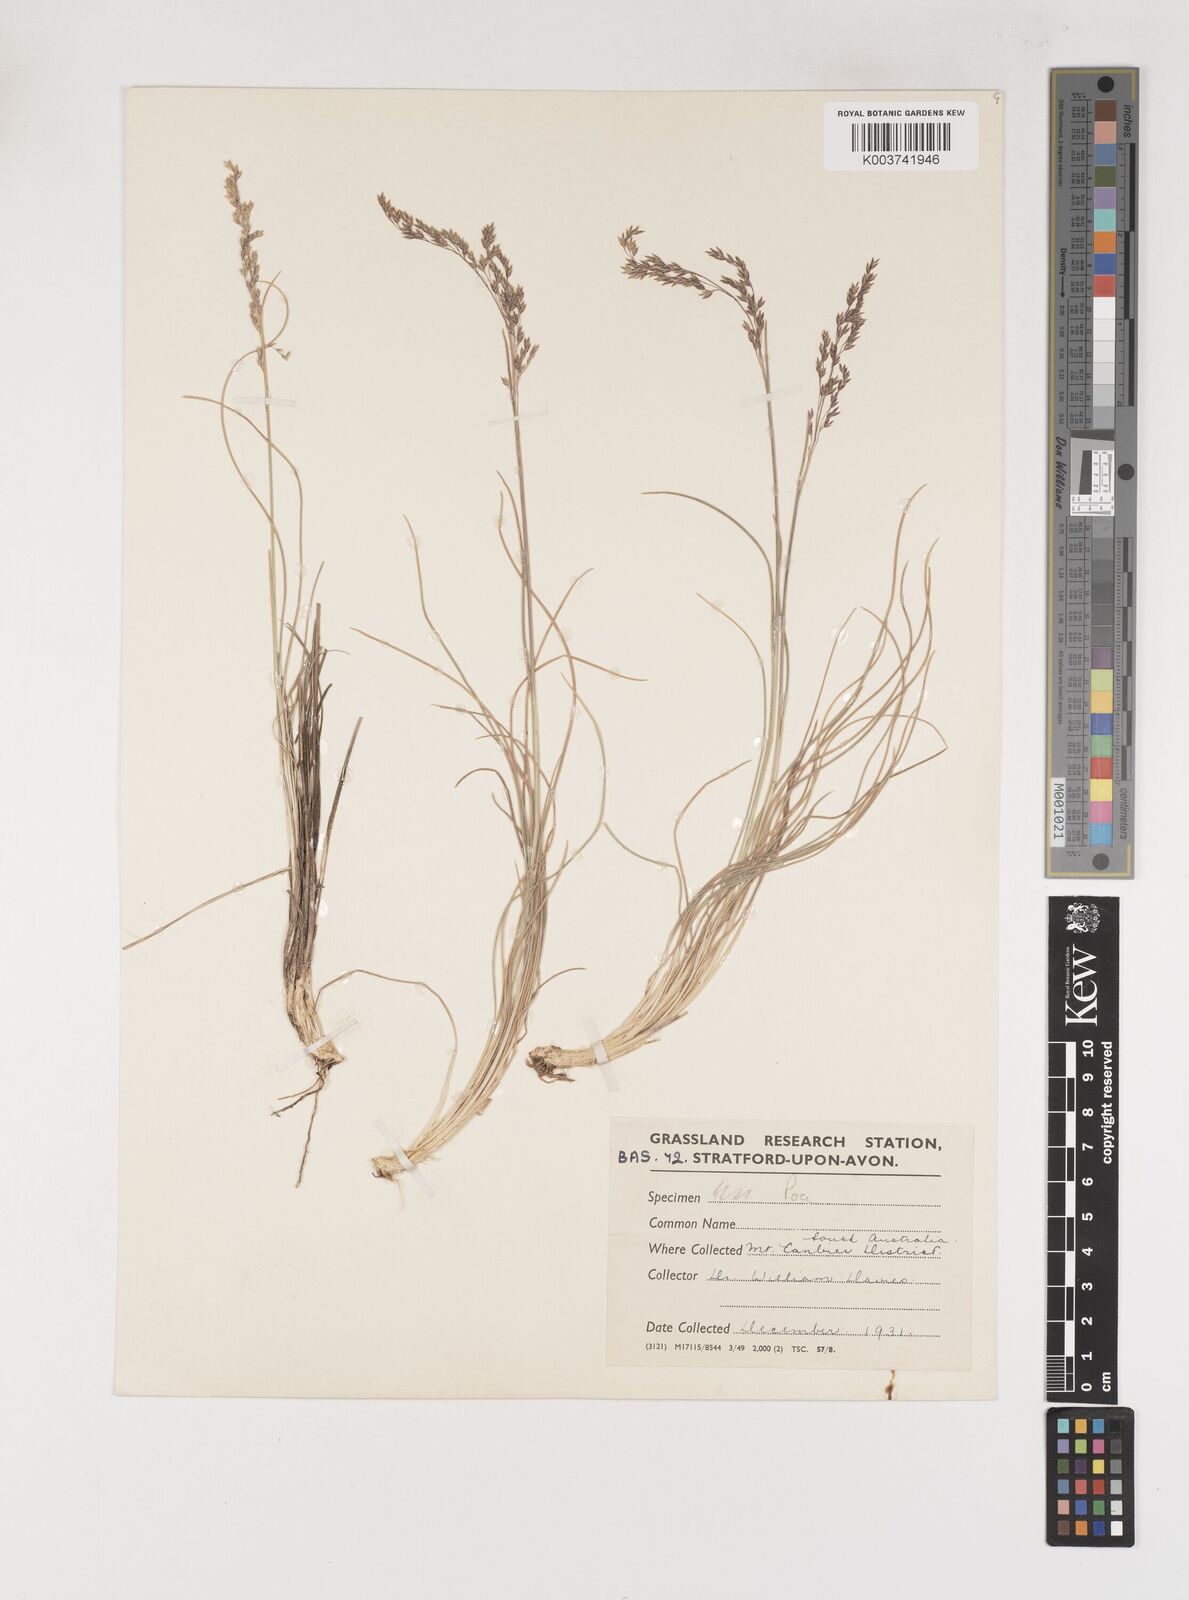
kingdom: Plantae
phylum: Tracheophyta
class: Liliopsida
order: Poales
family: Poaceae
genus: Poa
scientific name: Poa tenera
